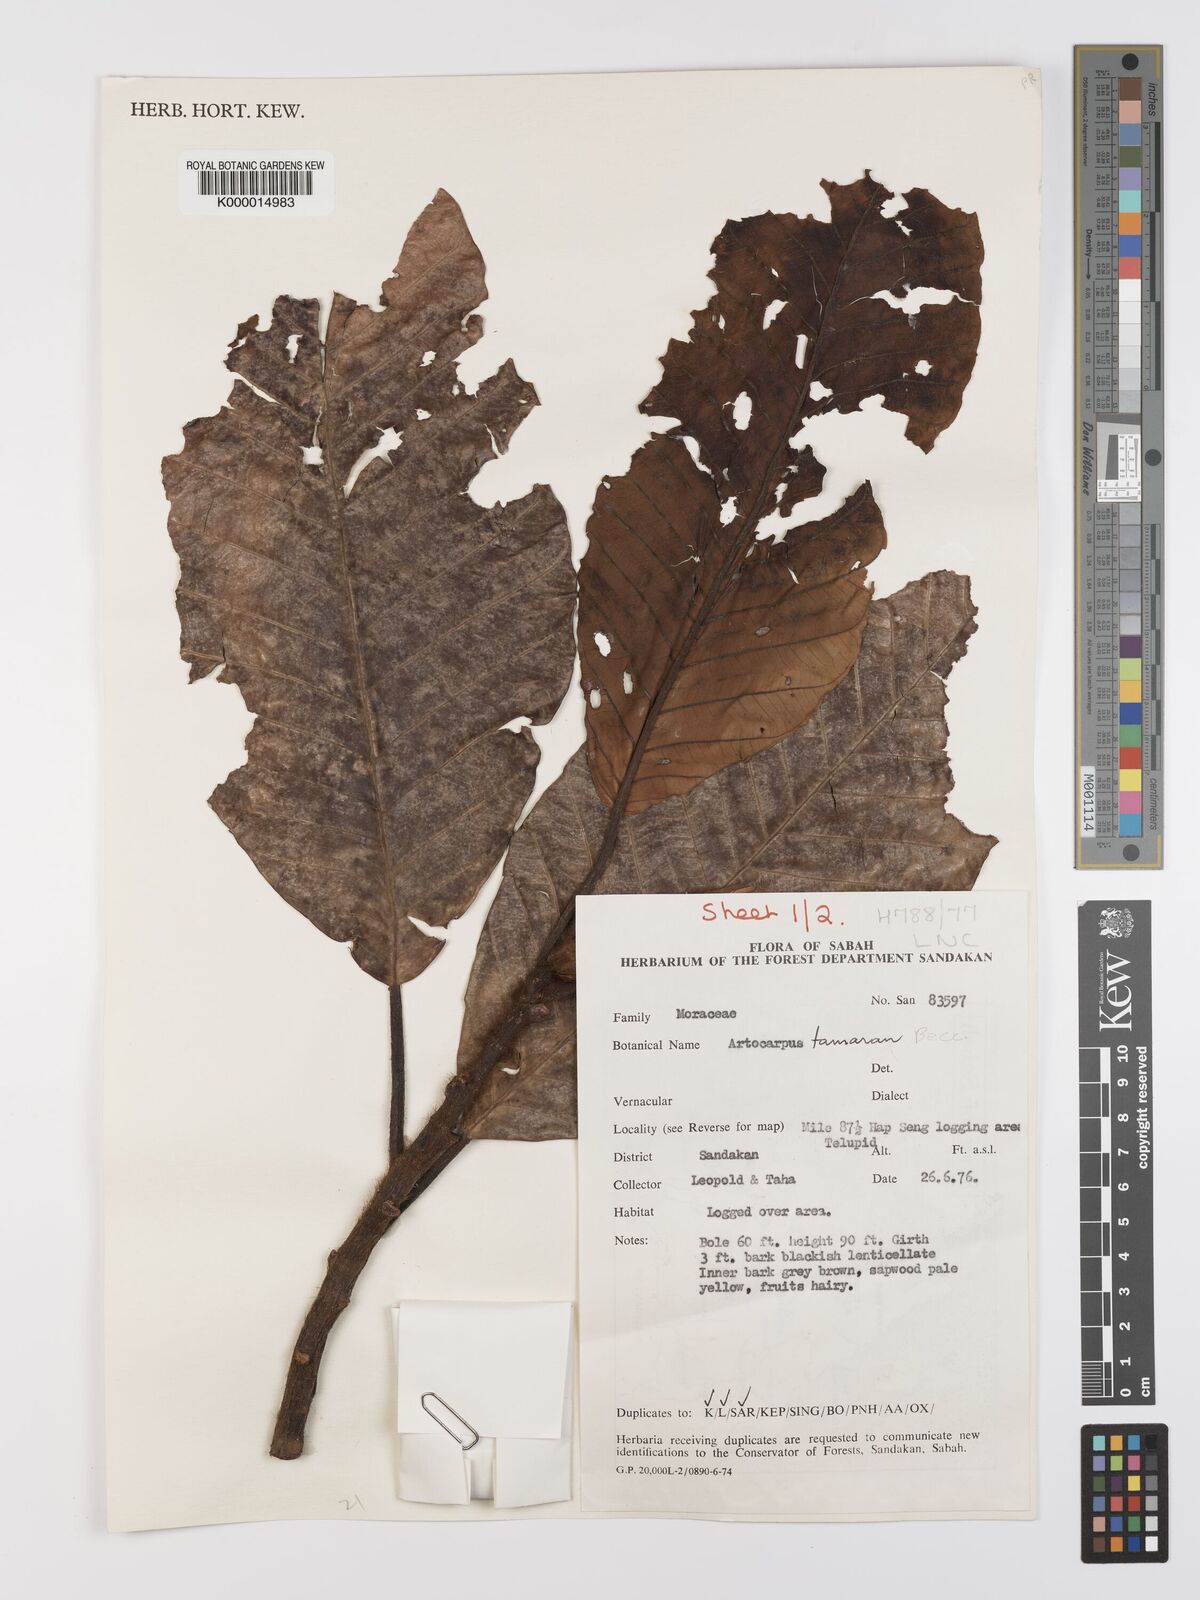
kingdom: Plantae
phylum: Tracheophyta
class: Magnoliopsida
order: Rosales
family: Moraceae
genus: Artocarpus
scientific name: Artocarpus tamaran
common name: Elephant jack
